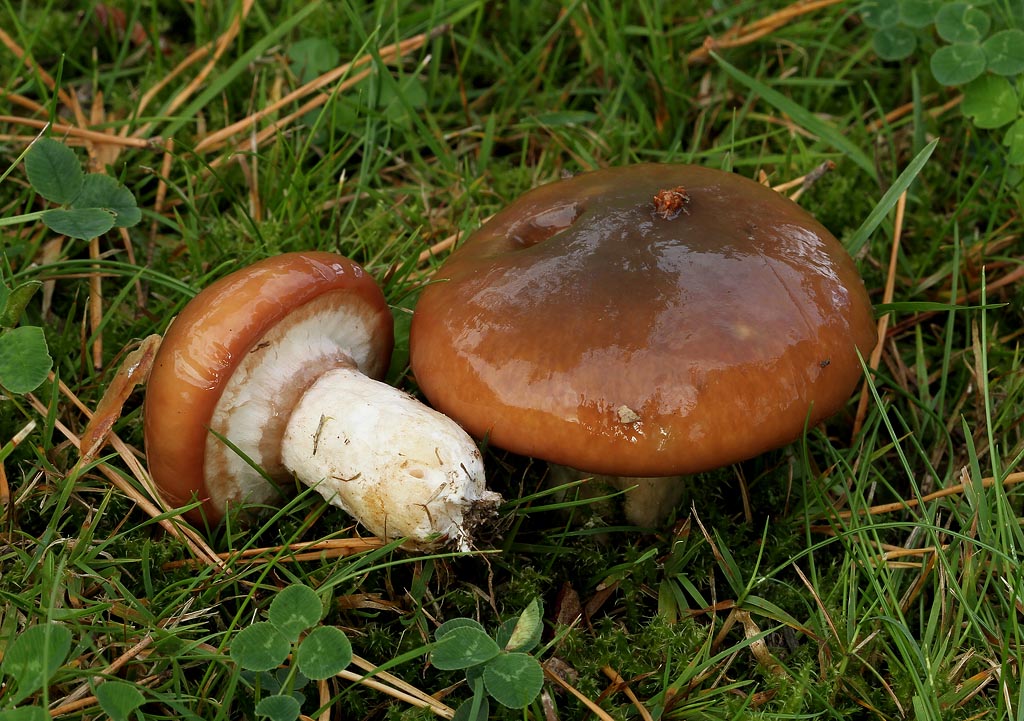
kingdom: Fungi
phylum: Basidiomycota
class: Agaricomycetes
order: Boletales
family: Suillaceae
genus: Suillus
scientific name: Suillus luteus
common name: brungul slimrørhat
